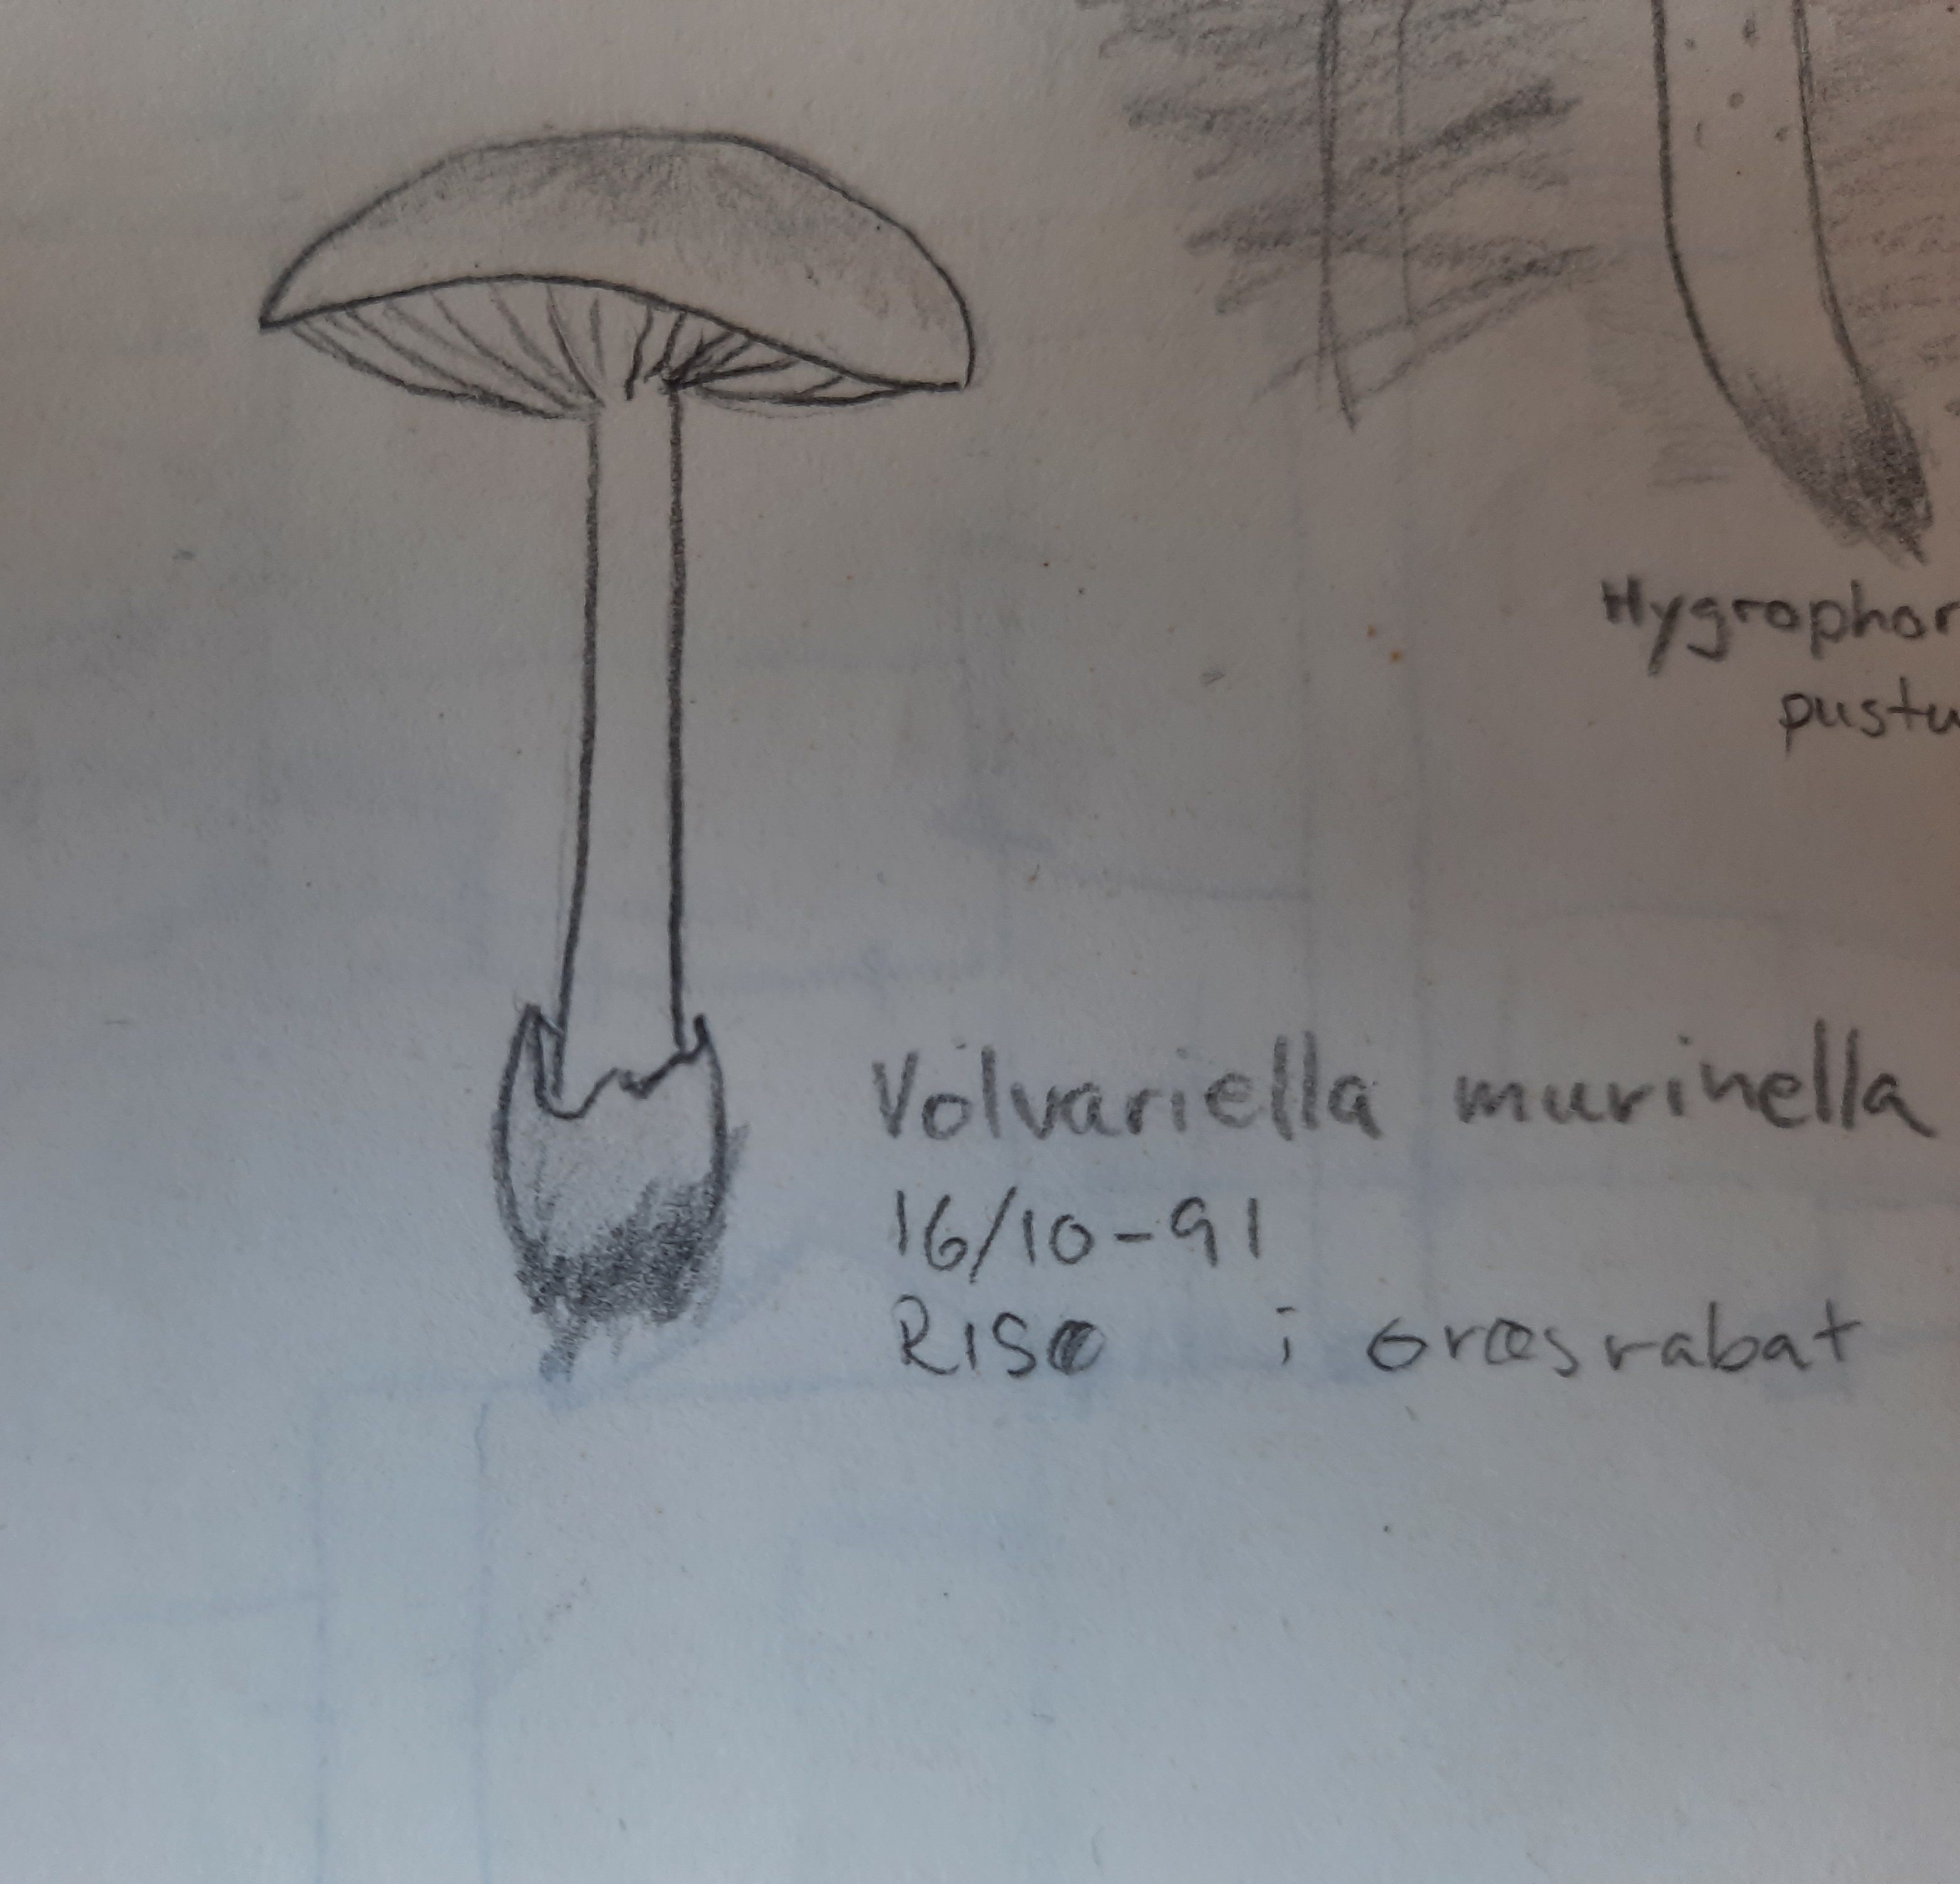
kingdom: Fungi
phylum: Basidiomycota
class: Agaricomycetes
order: Agaricales
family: Pluteaceae
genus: Volvariella
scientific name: Volvariella murinella
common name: musegrå posesvamp
